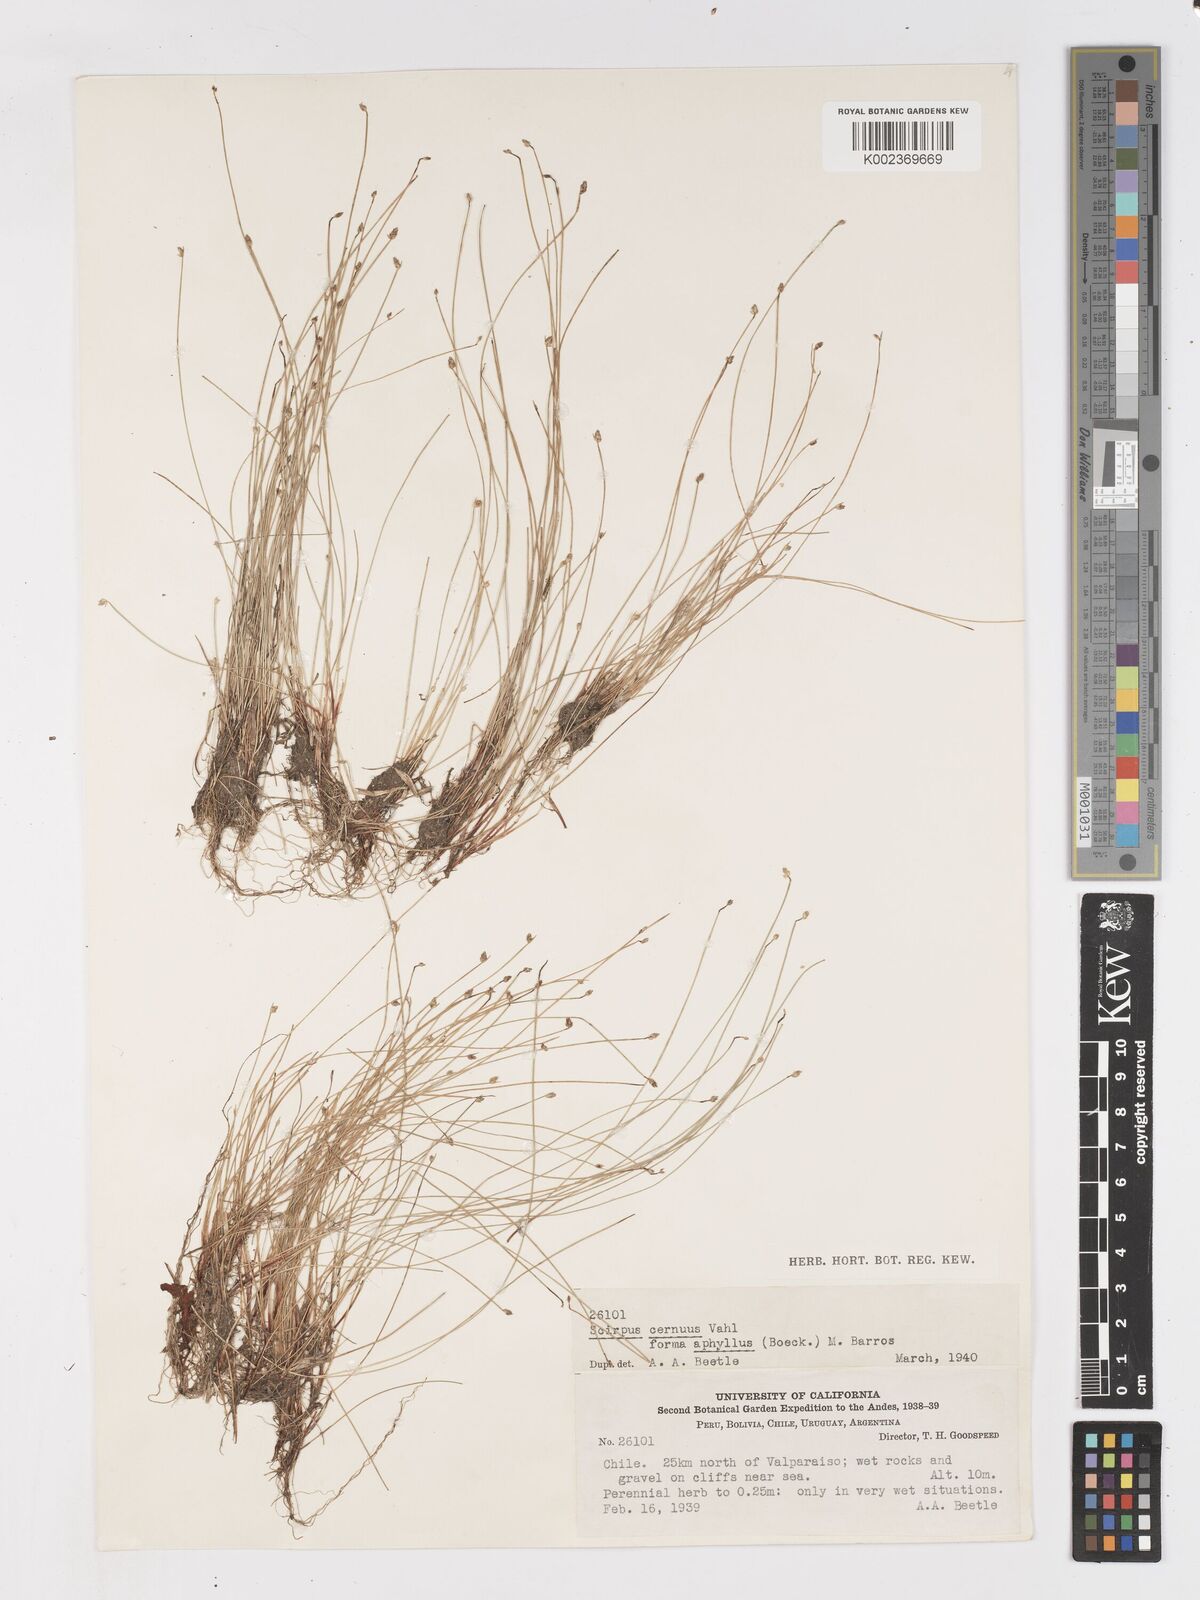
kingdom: Plantae
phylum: Tracheophyta
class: Liliopsida
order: Poales
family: Cyperaceae
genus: Isolepis
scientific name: Isolepis cernua
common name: Slender club-rush
